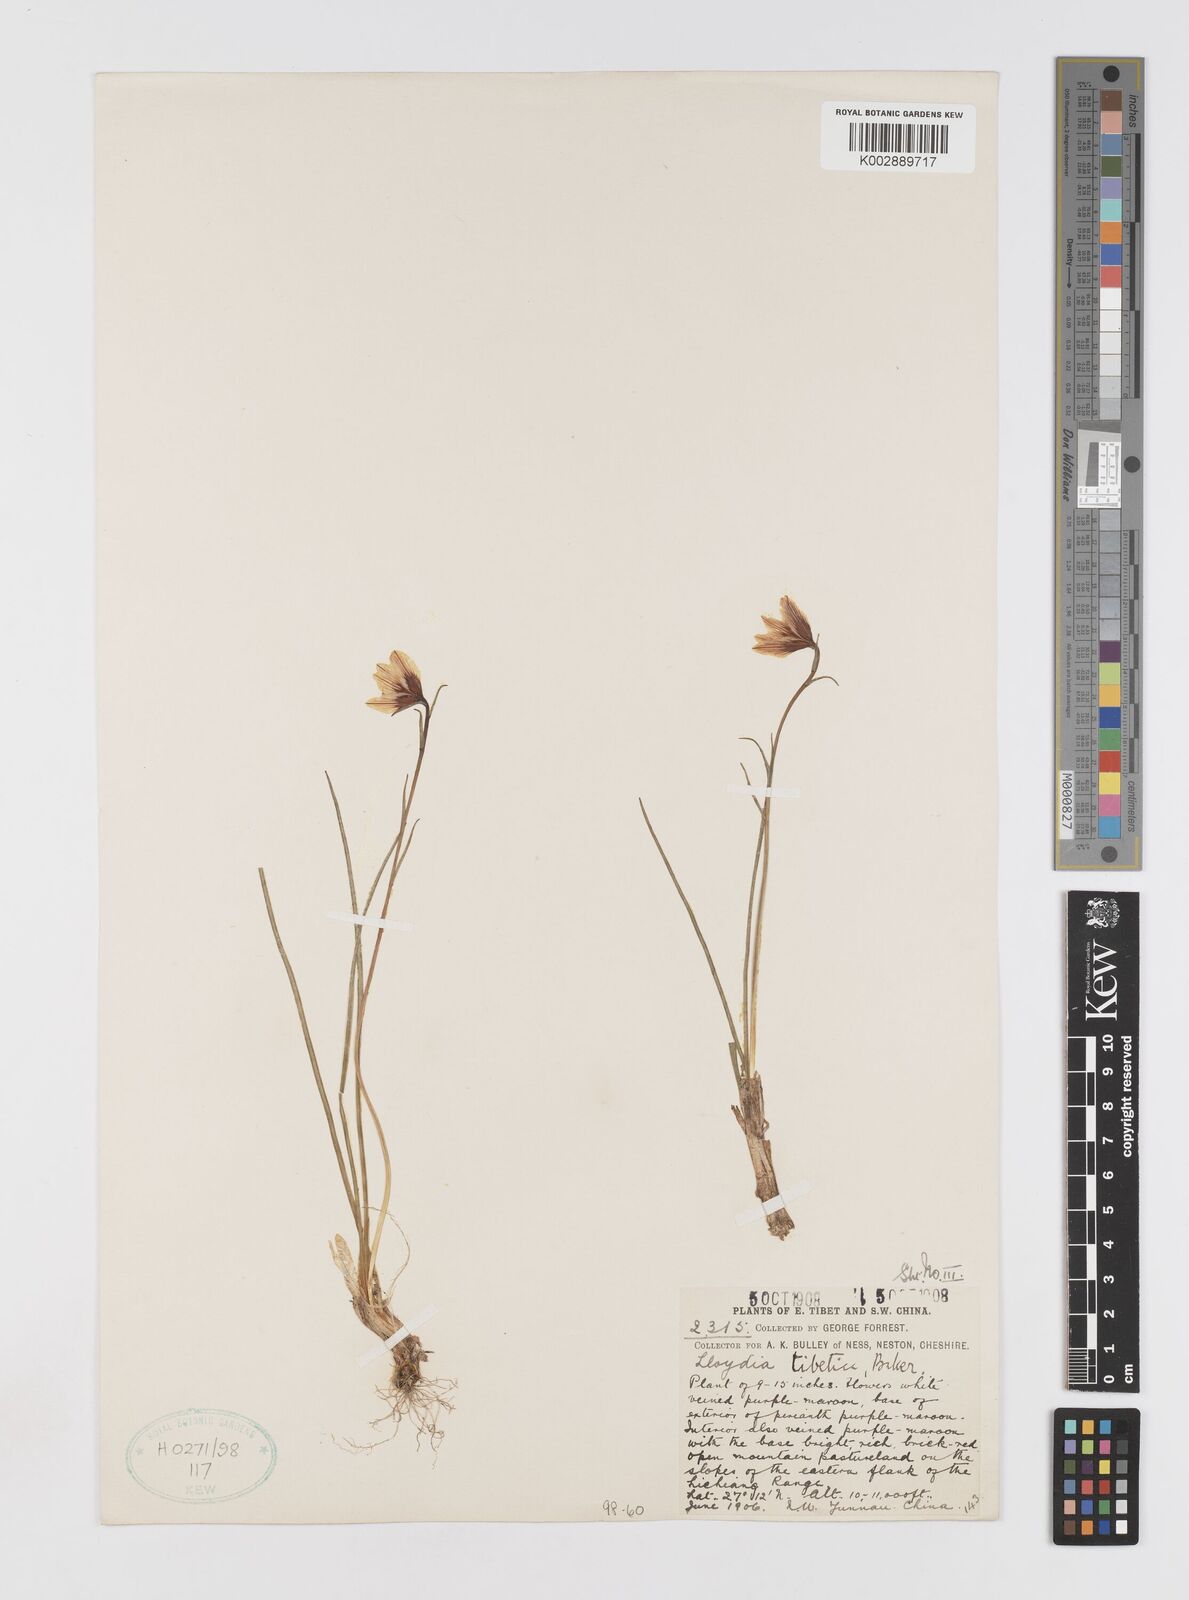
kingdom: Plantae
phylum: Tracheophyta
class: Liliopsida
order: Liliales
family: Liliaceae
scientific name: Liliaceae
